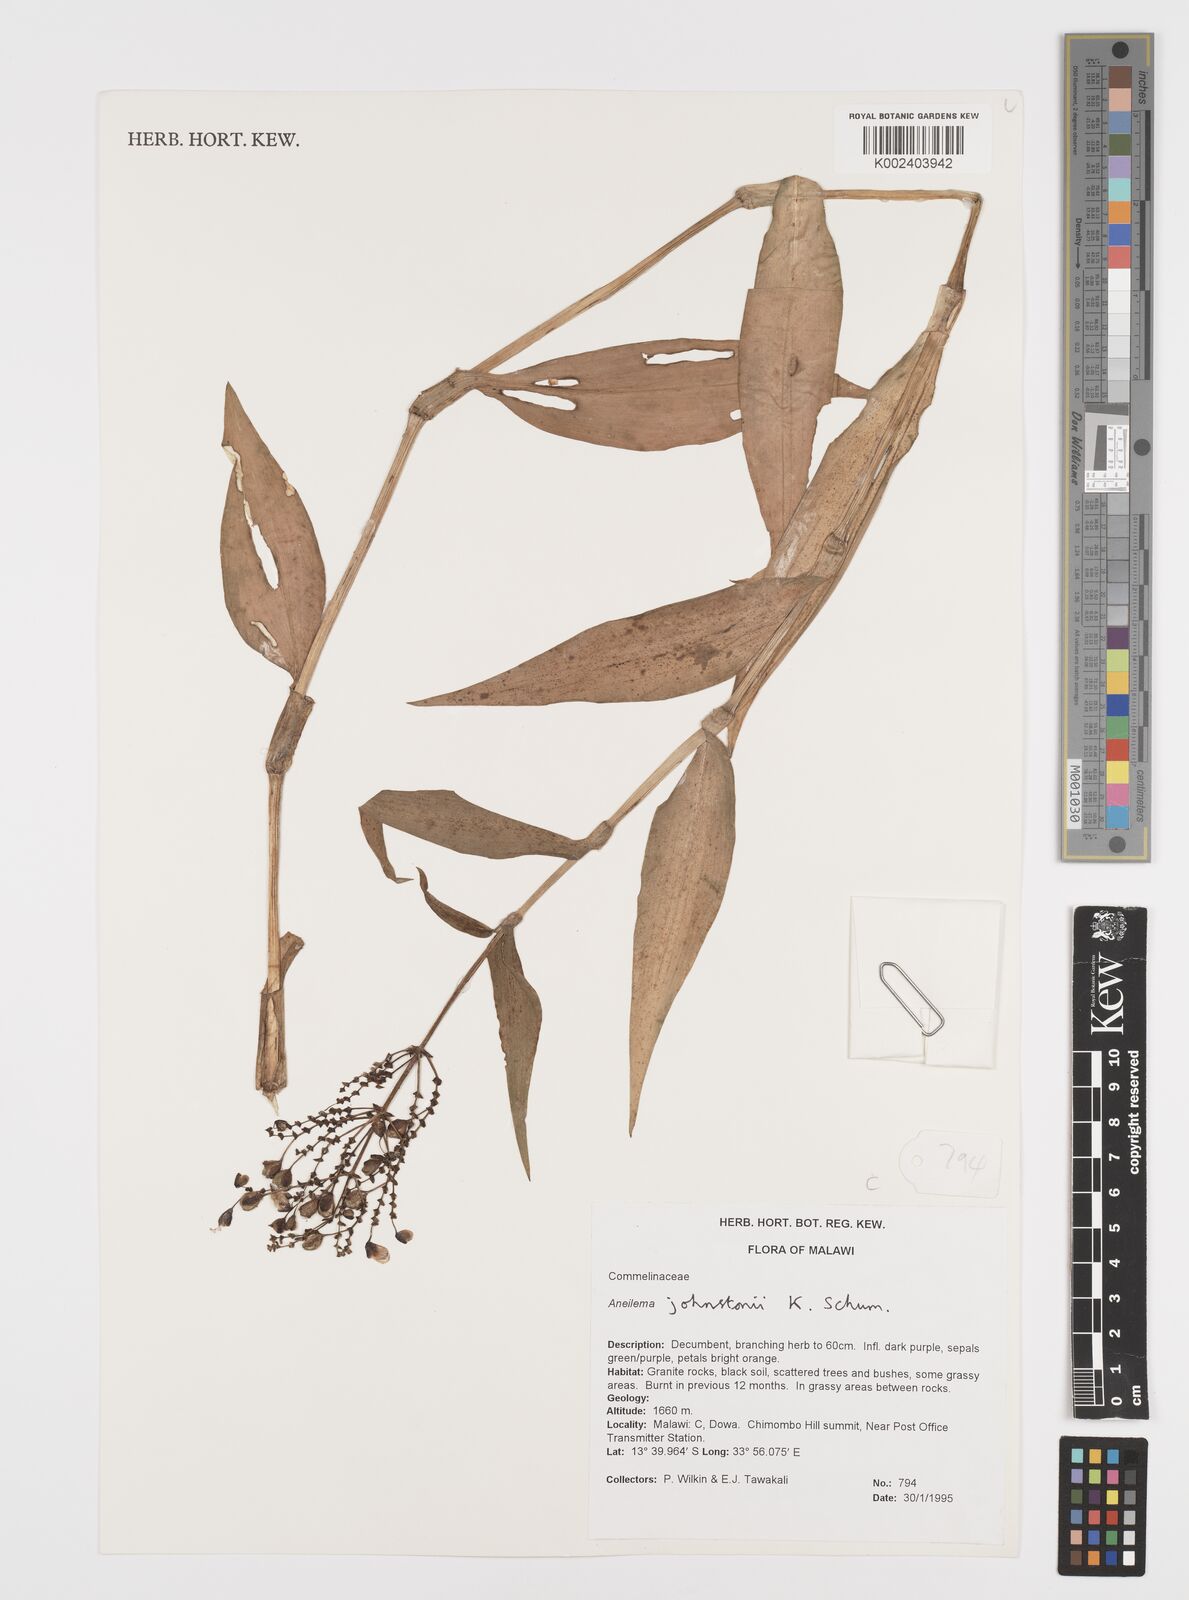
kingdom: Plantae
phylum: Tracheophyta
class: Liliopsida
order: Commelinales
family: Commelinaceae
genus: Aneilema
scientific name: Aneilema johnstonii
